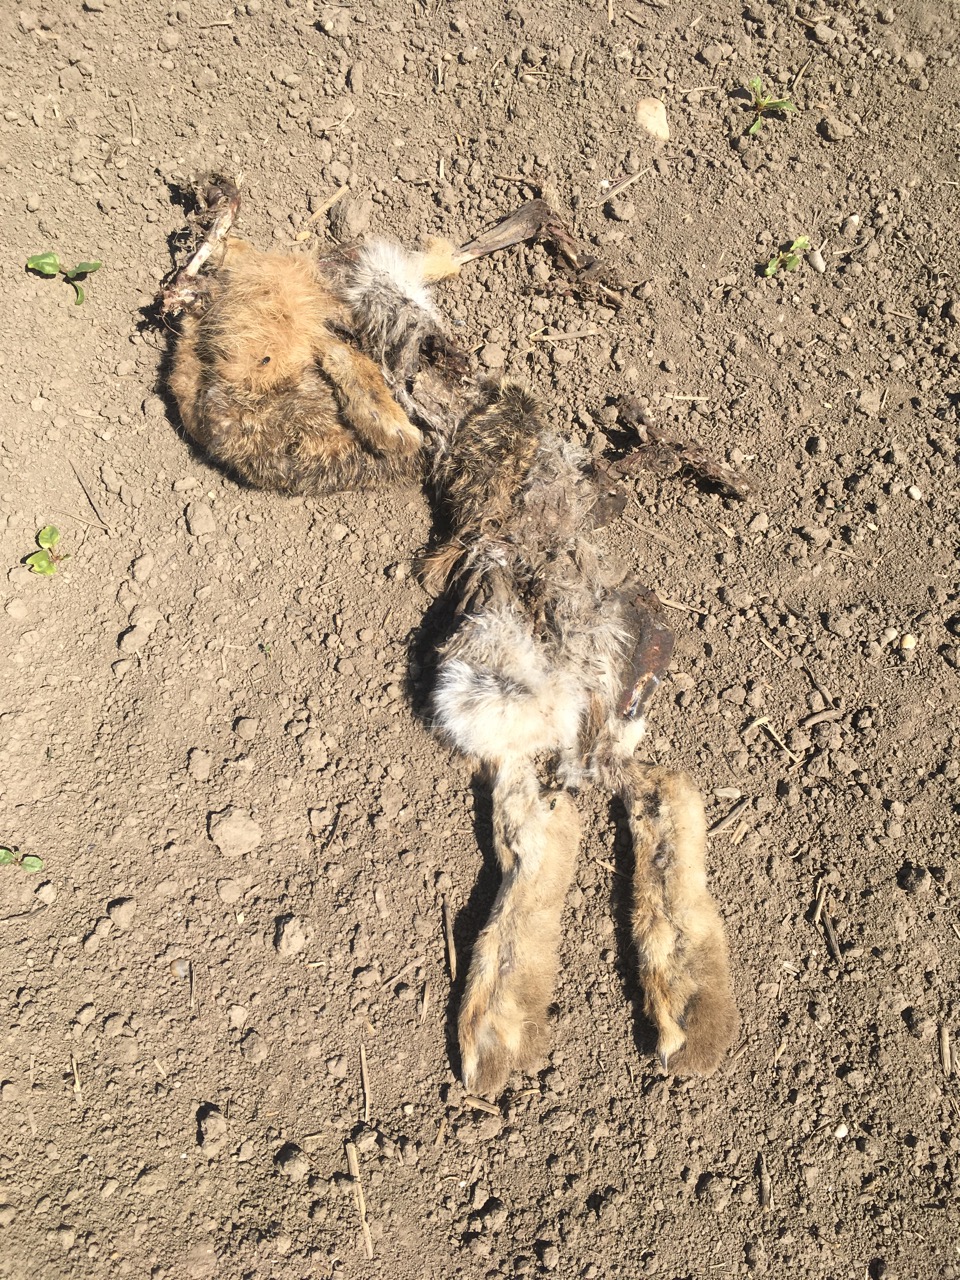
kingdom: Animalia
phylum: Chordata
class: Mammalia
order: Lagomorpha
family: Leporidae
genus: Lepus
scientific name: Lepus europaeus
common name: European hare
